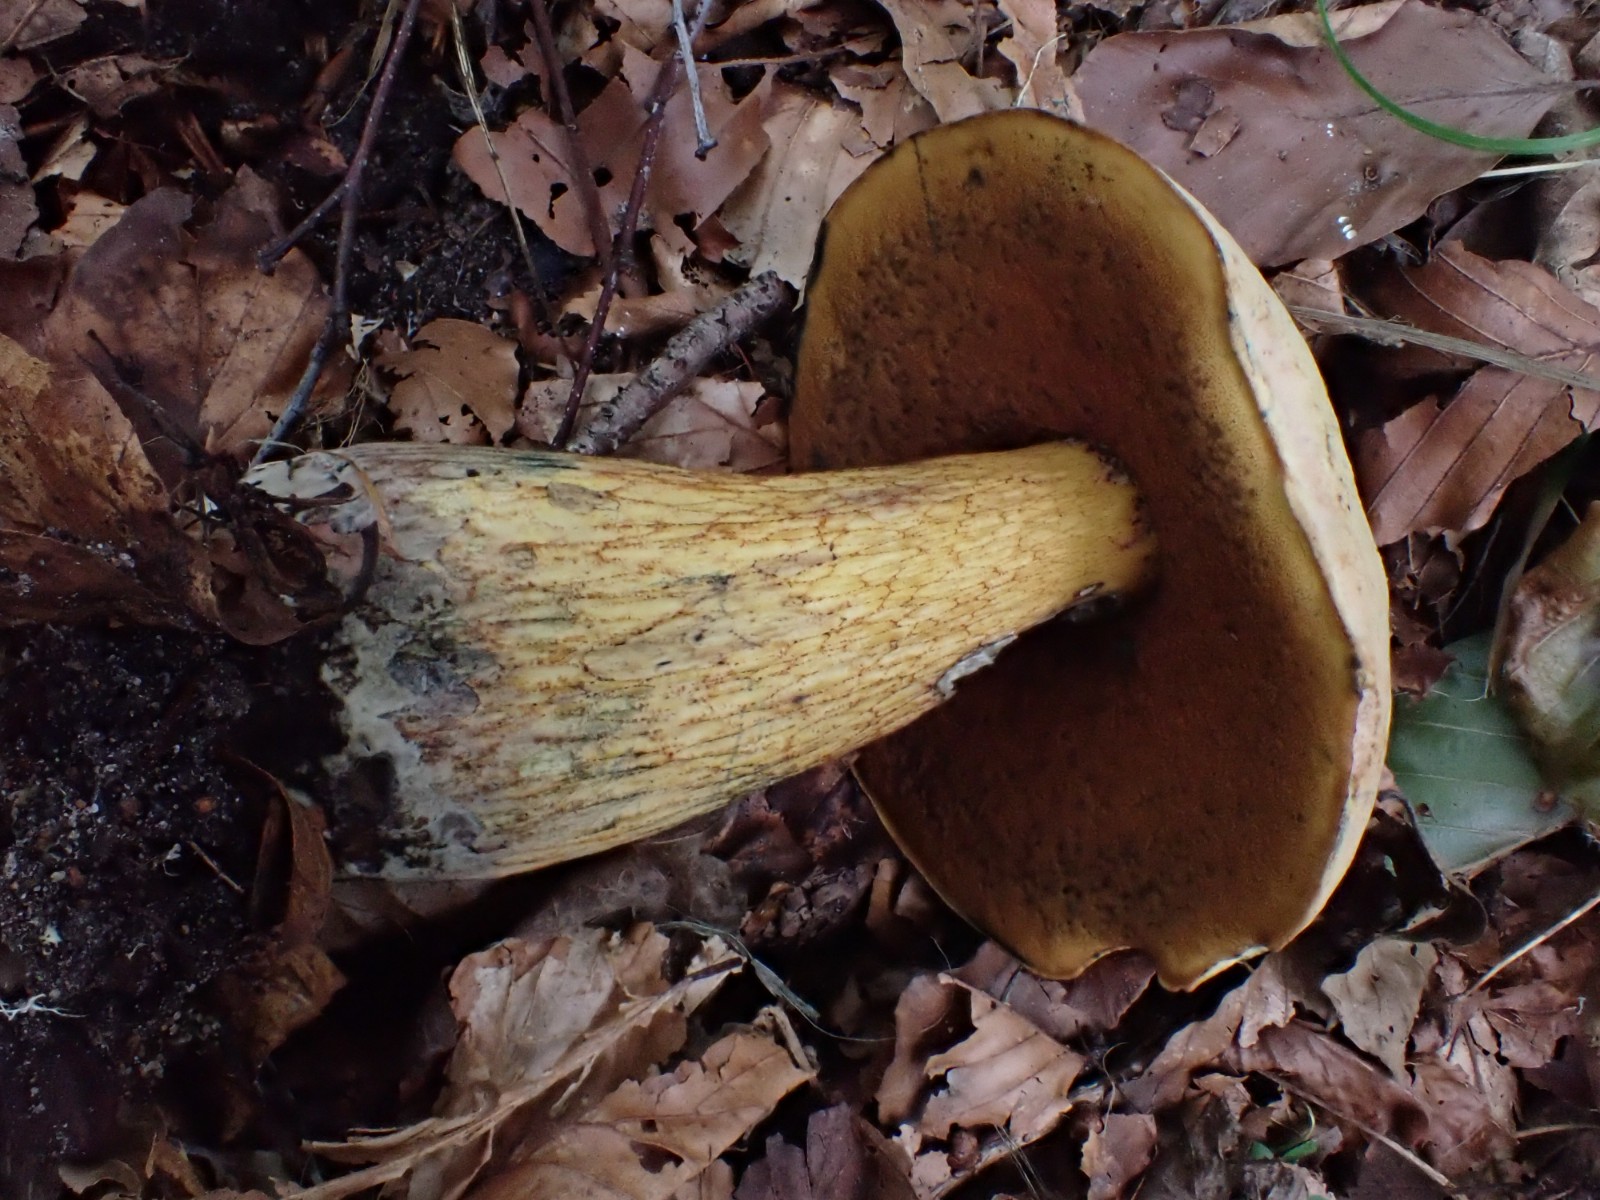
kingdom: Fungi
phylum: Basidiomycota
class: Agaricomycetes
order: Boletales
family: Boletaceae
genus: Suillellus
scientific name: Suillellus luridus
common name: netstokket indigorørhat
